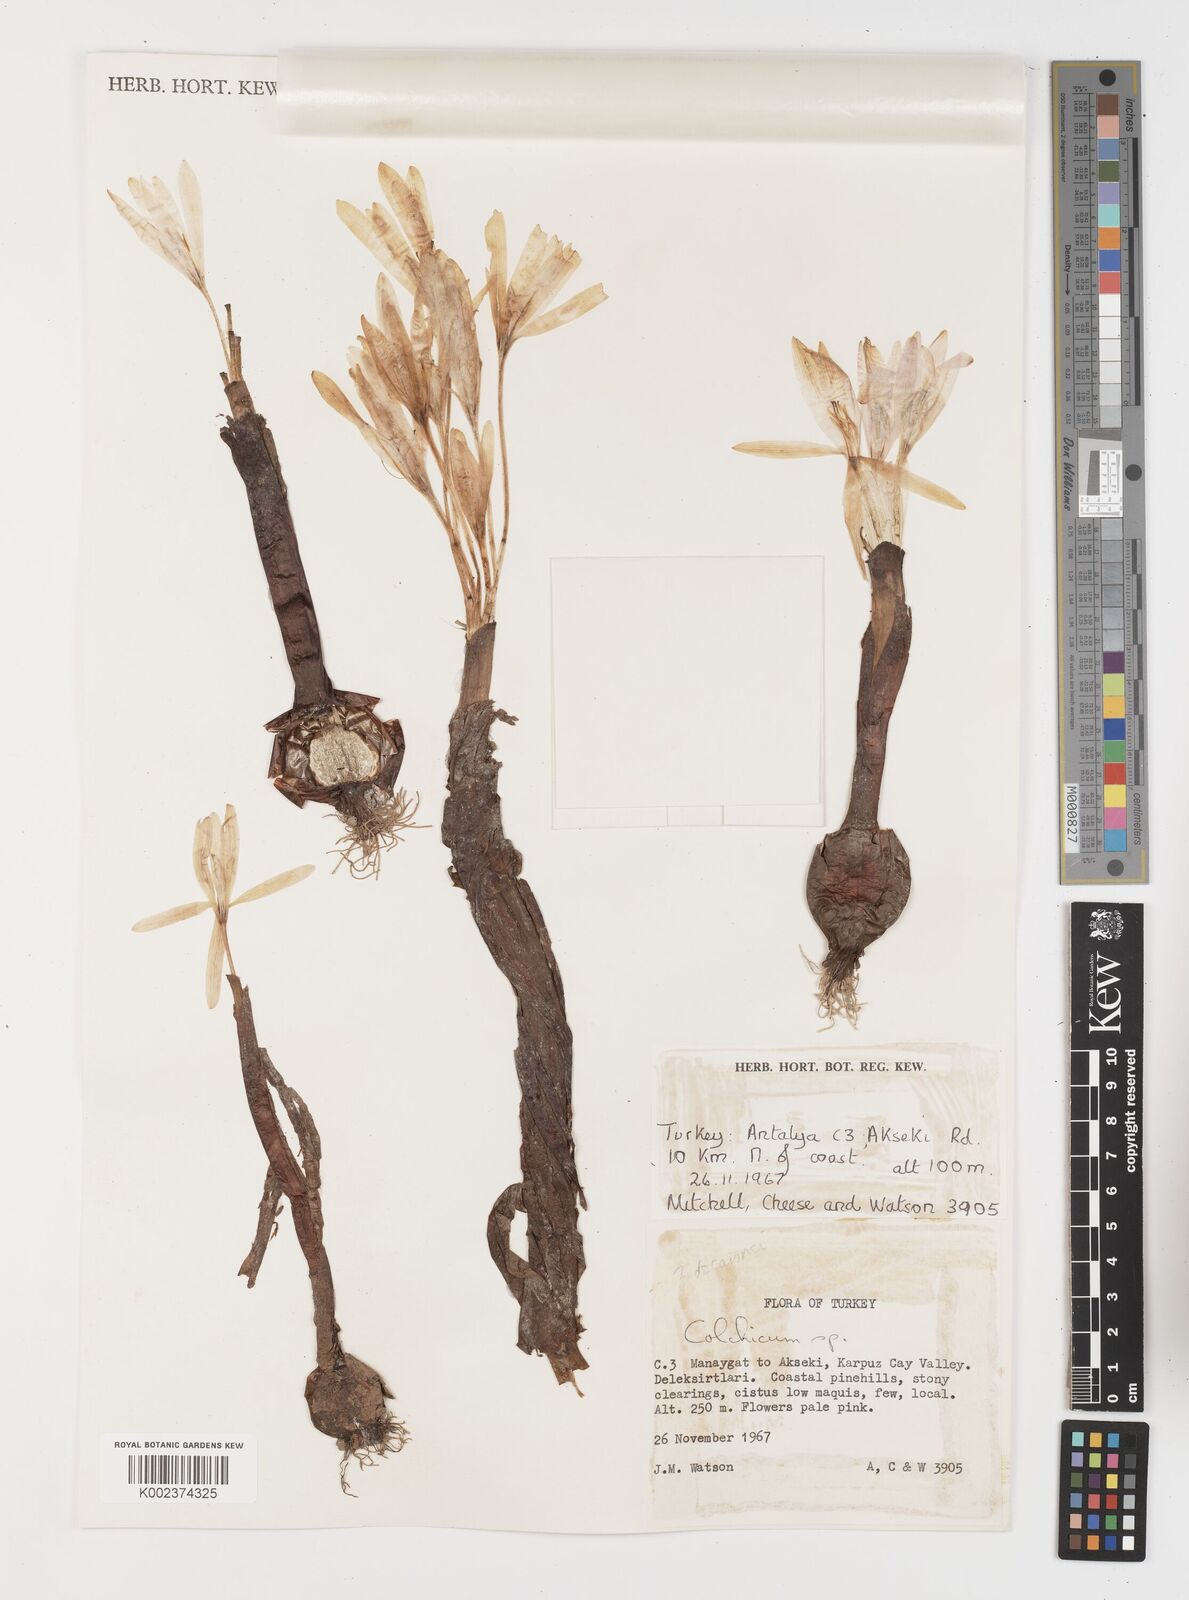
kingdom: Plantae
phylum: Tracheophyta
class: Liliopsida
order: Liliales
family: Colchicaceae
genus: Colchicum
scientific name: Colchicum
